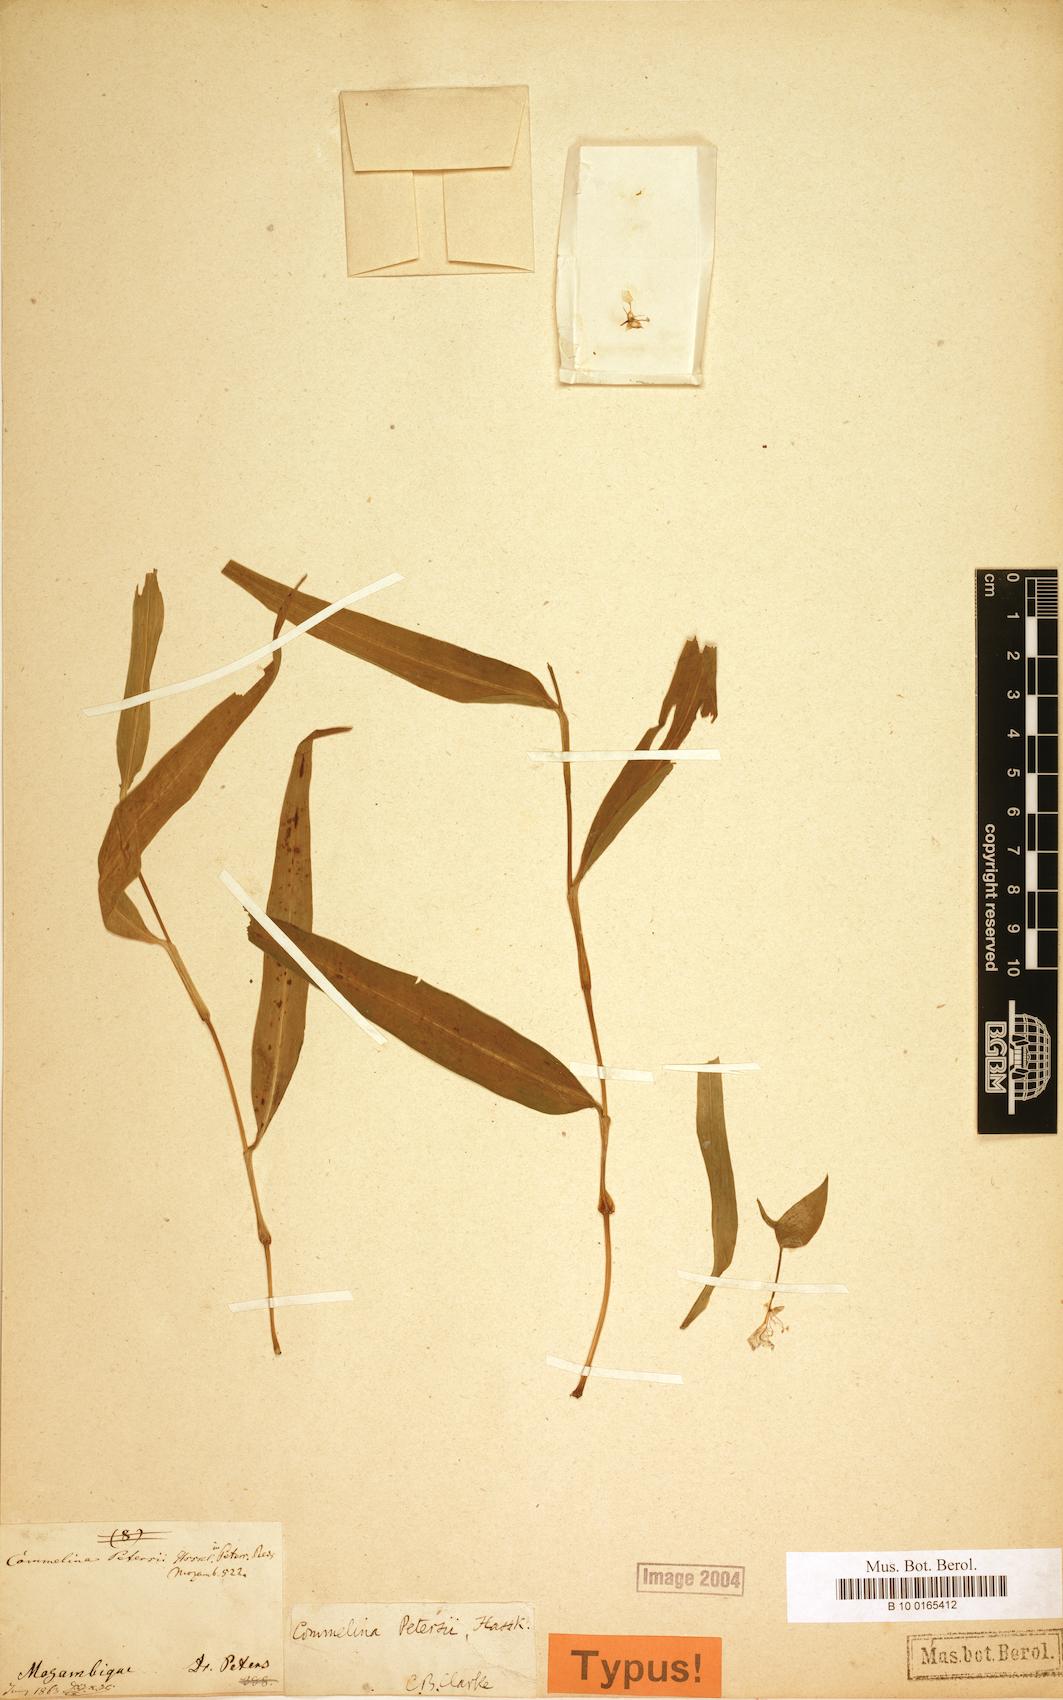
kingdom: Plantae
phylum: Tracheophyta
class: Liliopsida
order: Commelinales
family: Commelinaceae
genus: Commelina
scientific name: Commelina petersii
